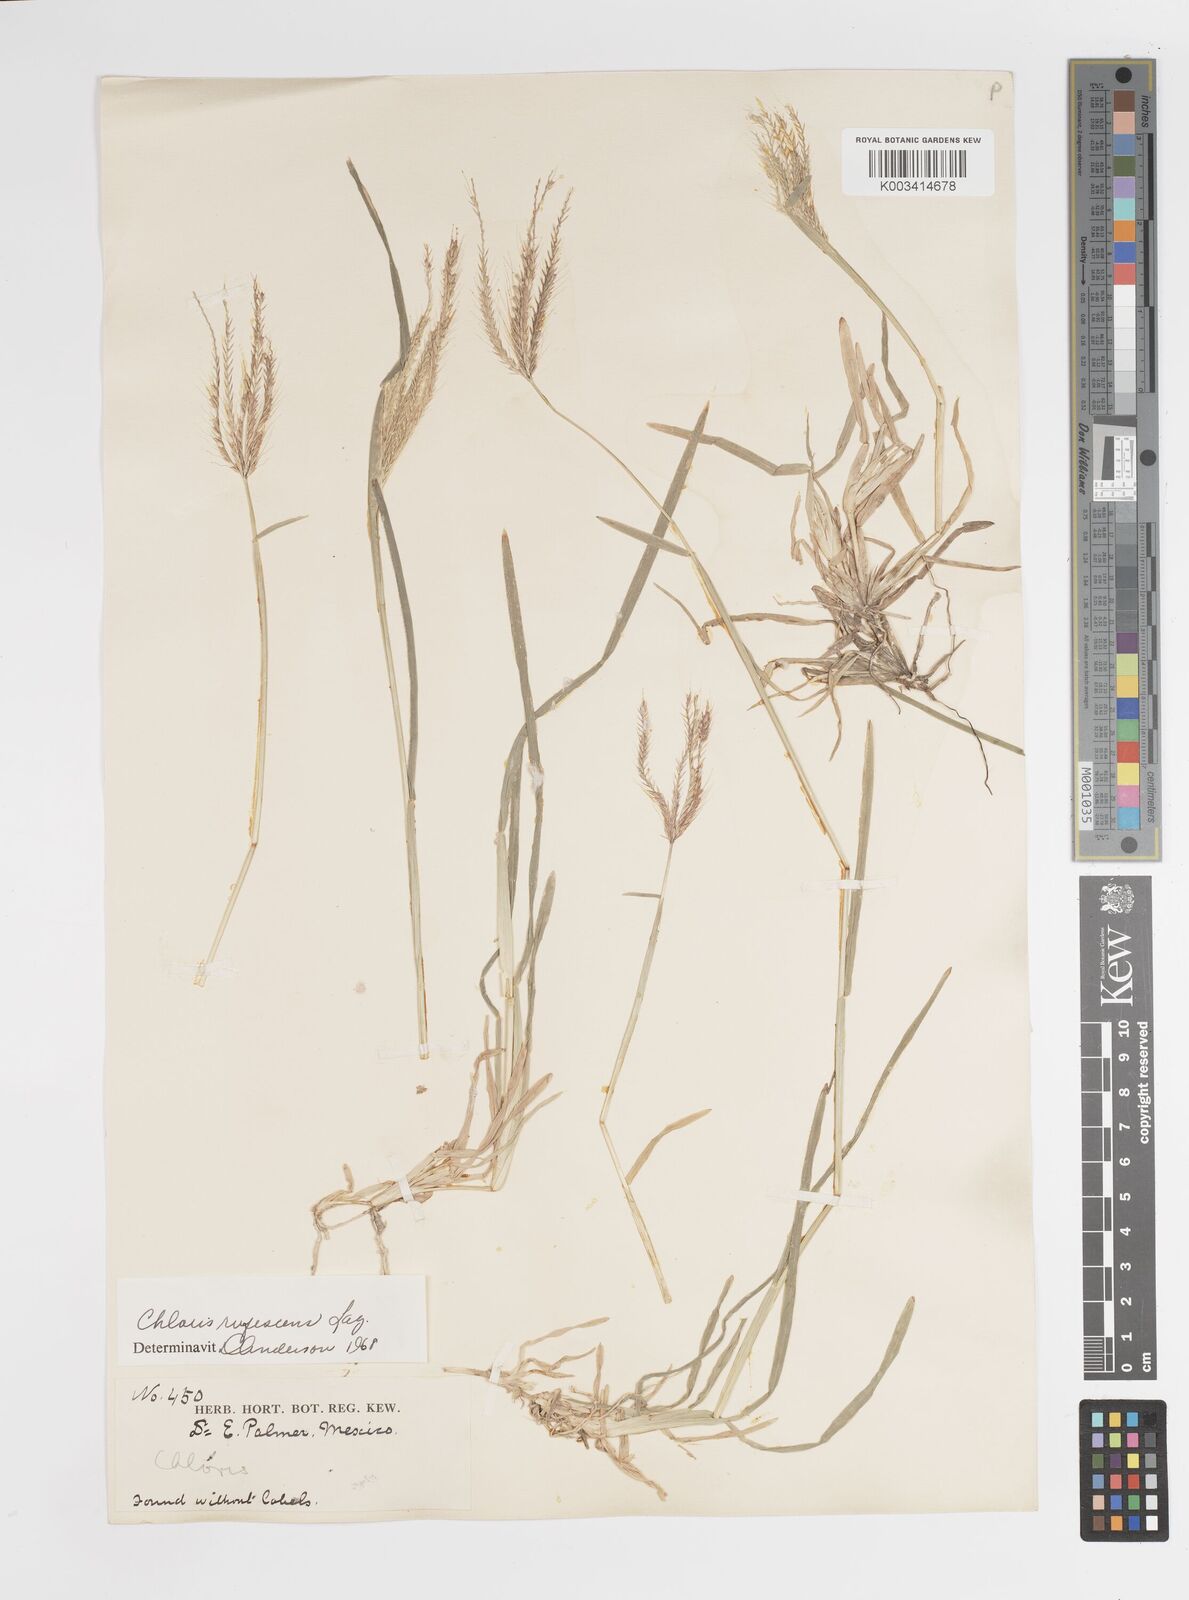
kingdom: Plantae
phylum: Tracheophyta
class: Liliopsida
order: Poales
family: Poaceae
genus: Chloris
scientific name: Chloris rufescens
